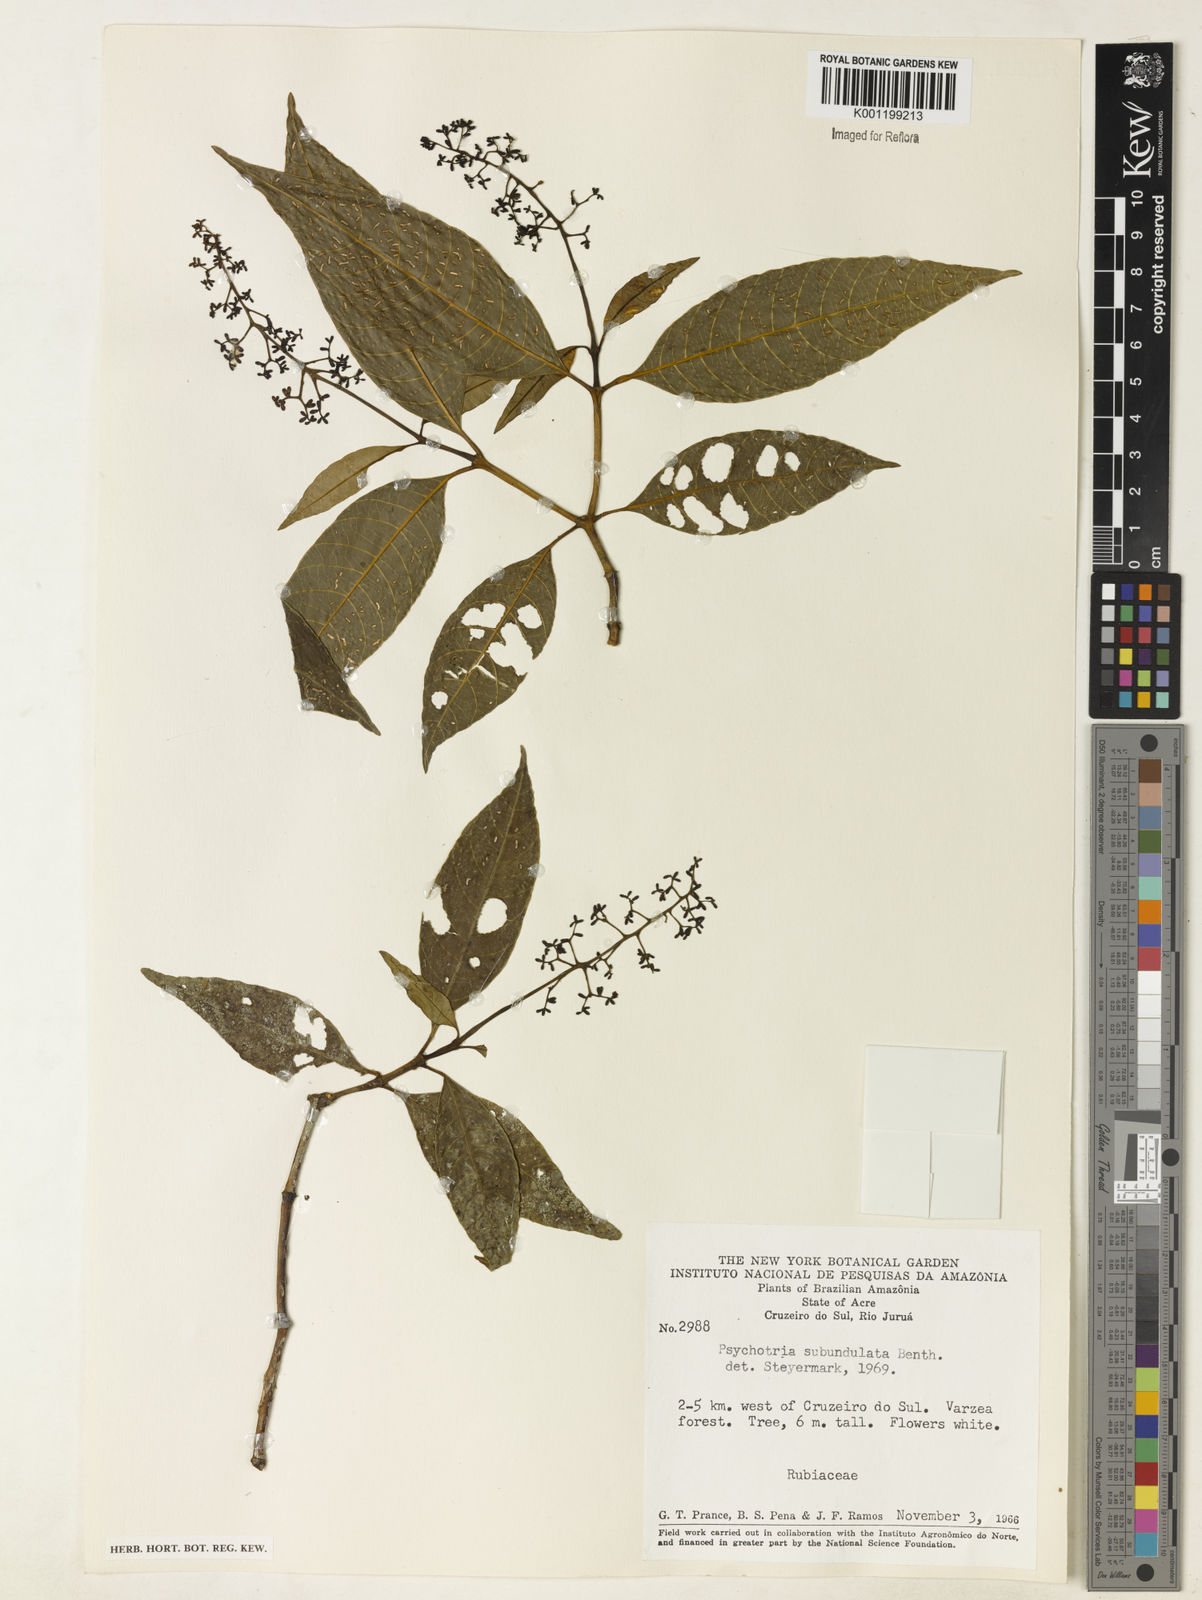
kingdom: Plantae
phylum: Tracheophyta
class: Magnoliopsida
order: Gentianales
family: Rubiaceae
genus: Palicourea
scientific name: Palicourea subundulata
